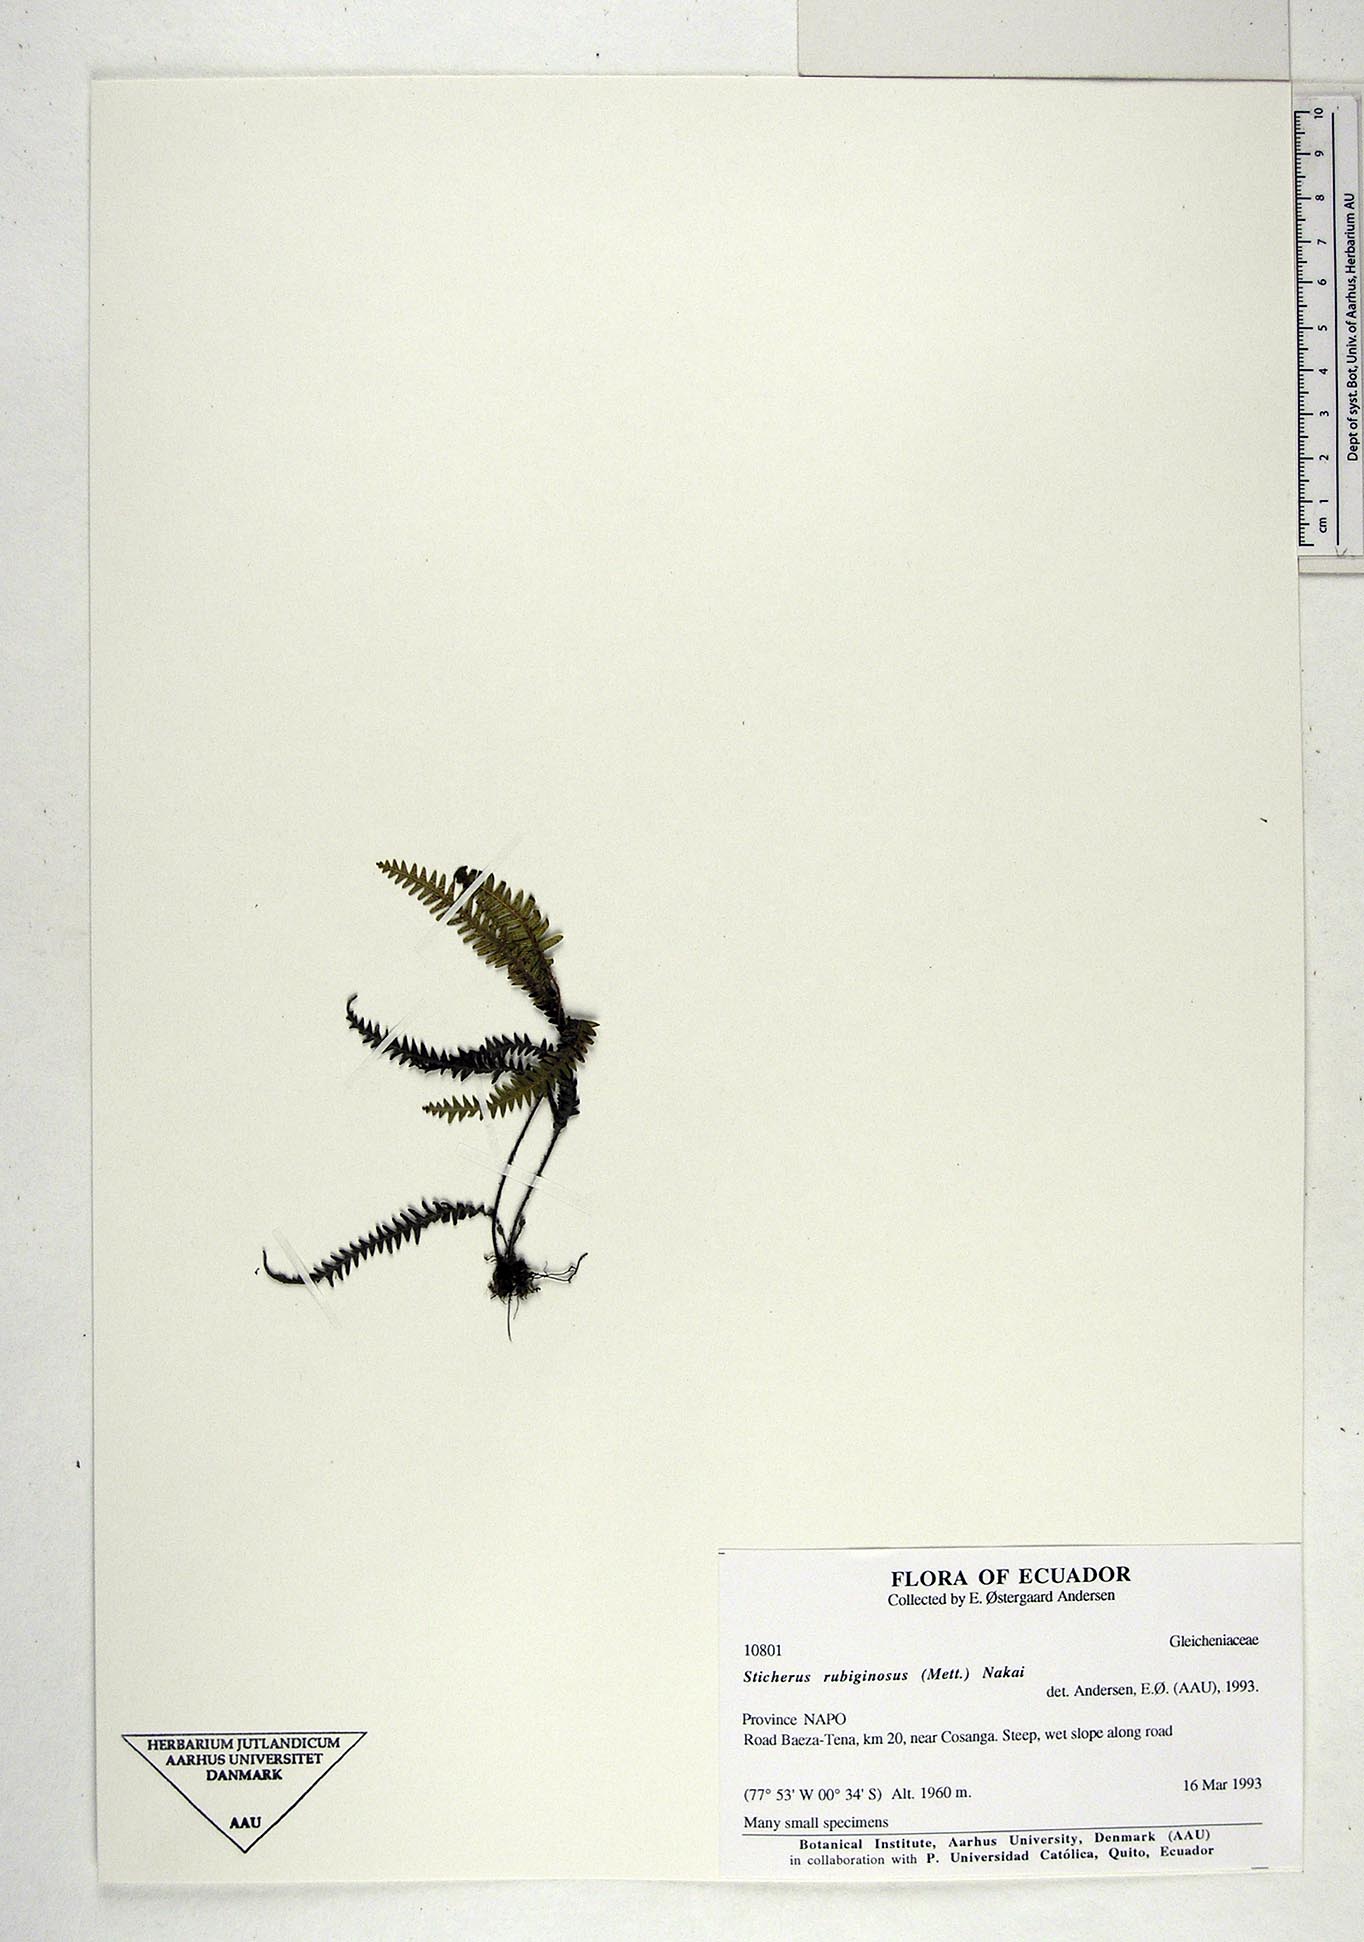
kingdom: Plantae
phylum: Tracheophyta
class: Polypodiopsida
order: Gleicheniales
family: Gleicheniaceae
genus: Sticherus
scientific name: Sticherus rubiginosus
